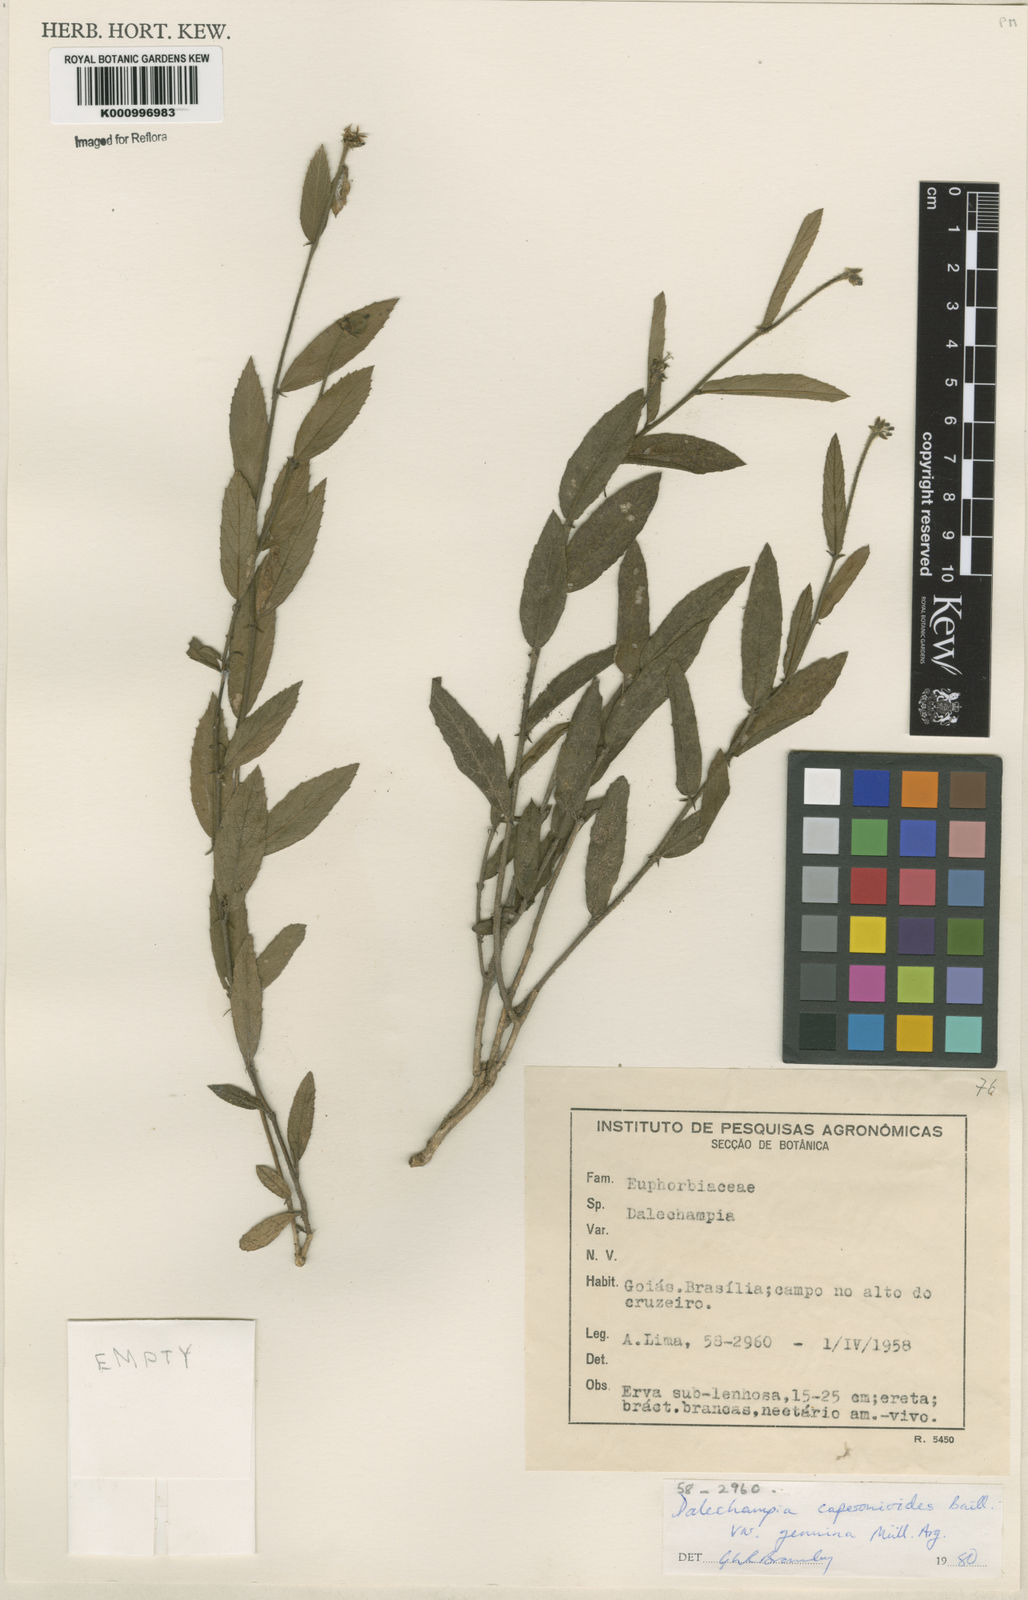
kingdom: Plantae
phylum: Tracheophyta
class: Magnoliopsida
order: Malpighiales
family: Euphorbiaceae
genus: Dalechampia
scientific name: Dalechampia caperonioides
